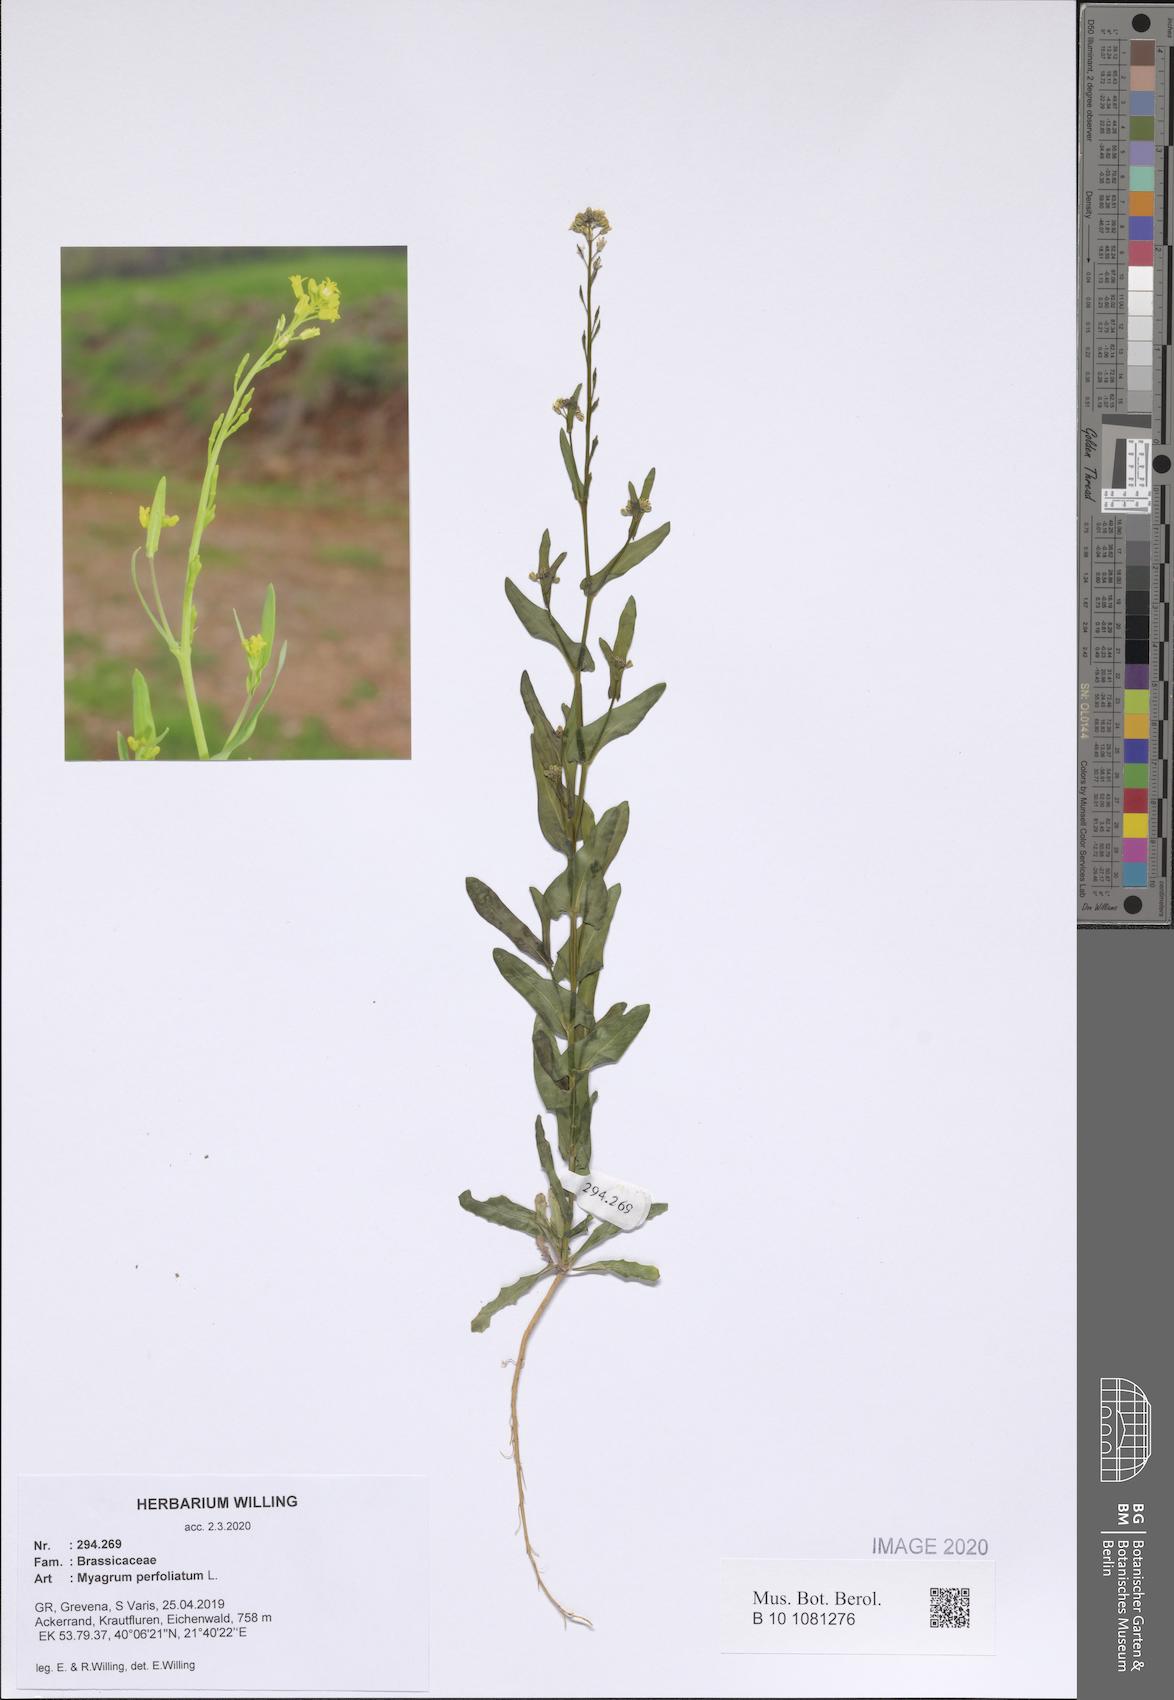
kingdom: Plantae
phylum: Tracheophyta
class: Magnoliopsida
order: Brassicales
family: Brassicaceae
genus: Myagrum
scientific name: Myagrum perfoliatum
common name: Mitre cress
